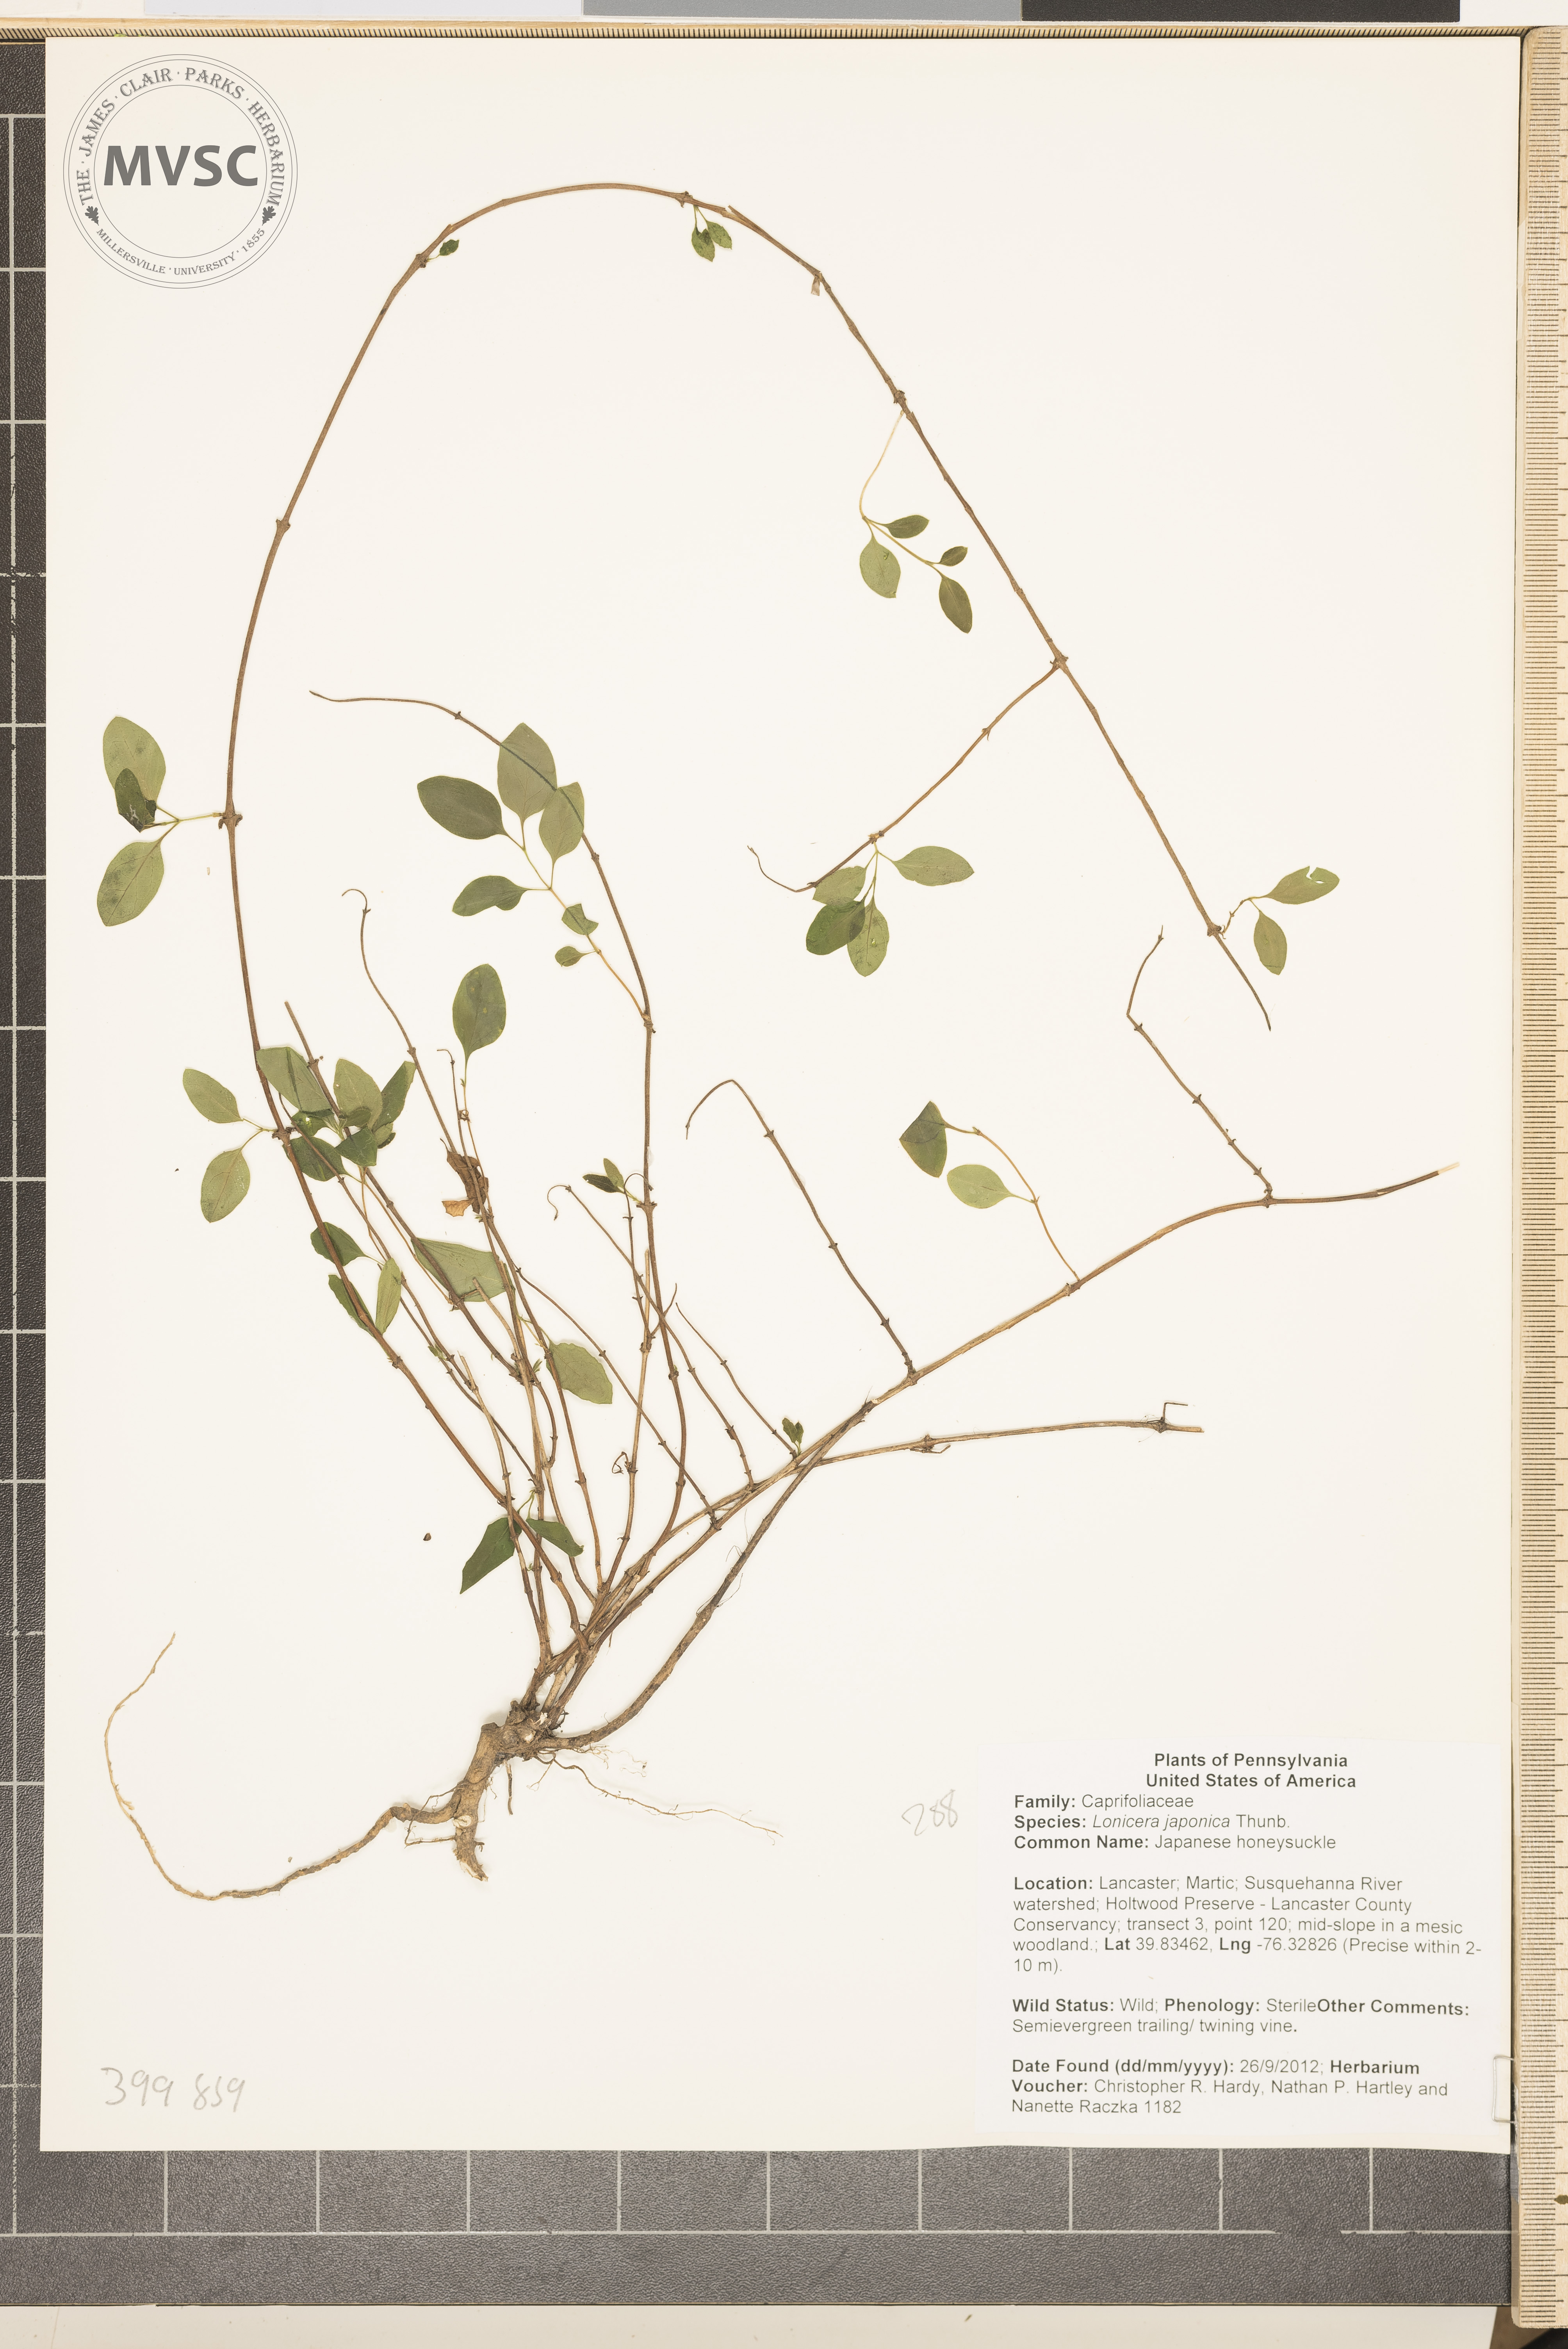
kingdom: Plantae
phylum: Tracheophyta
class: Magnoliopsida
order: Dipsacales
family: Caprifoliaceae
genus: Lonicera
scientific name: Lonicera japonica
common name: Japanese honeysuckle
